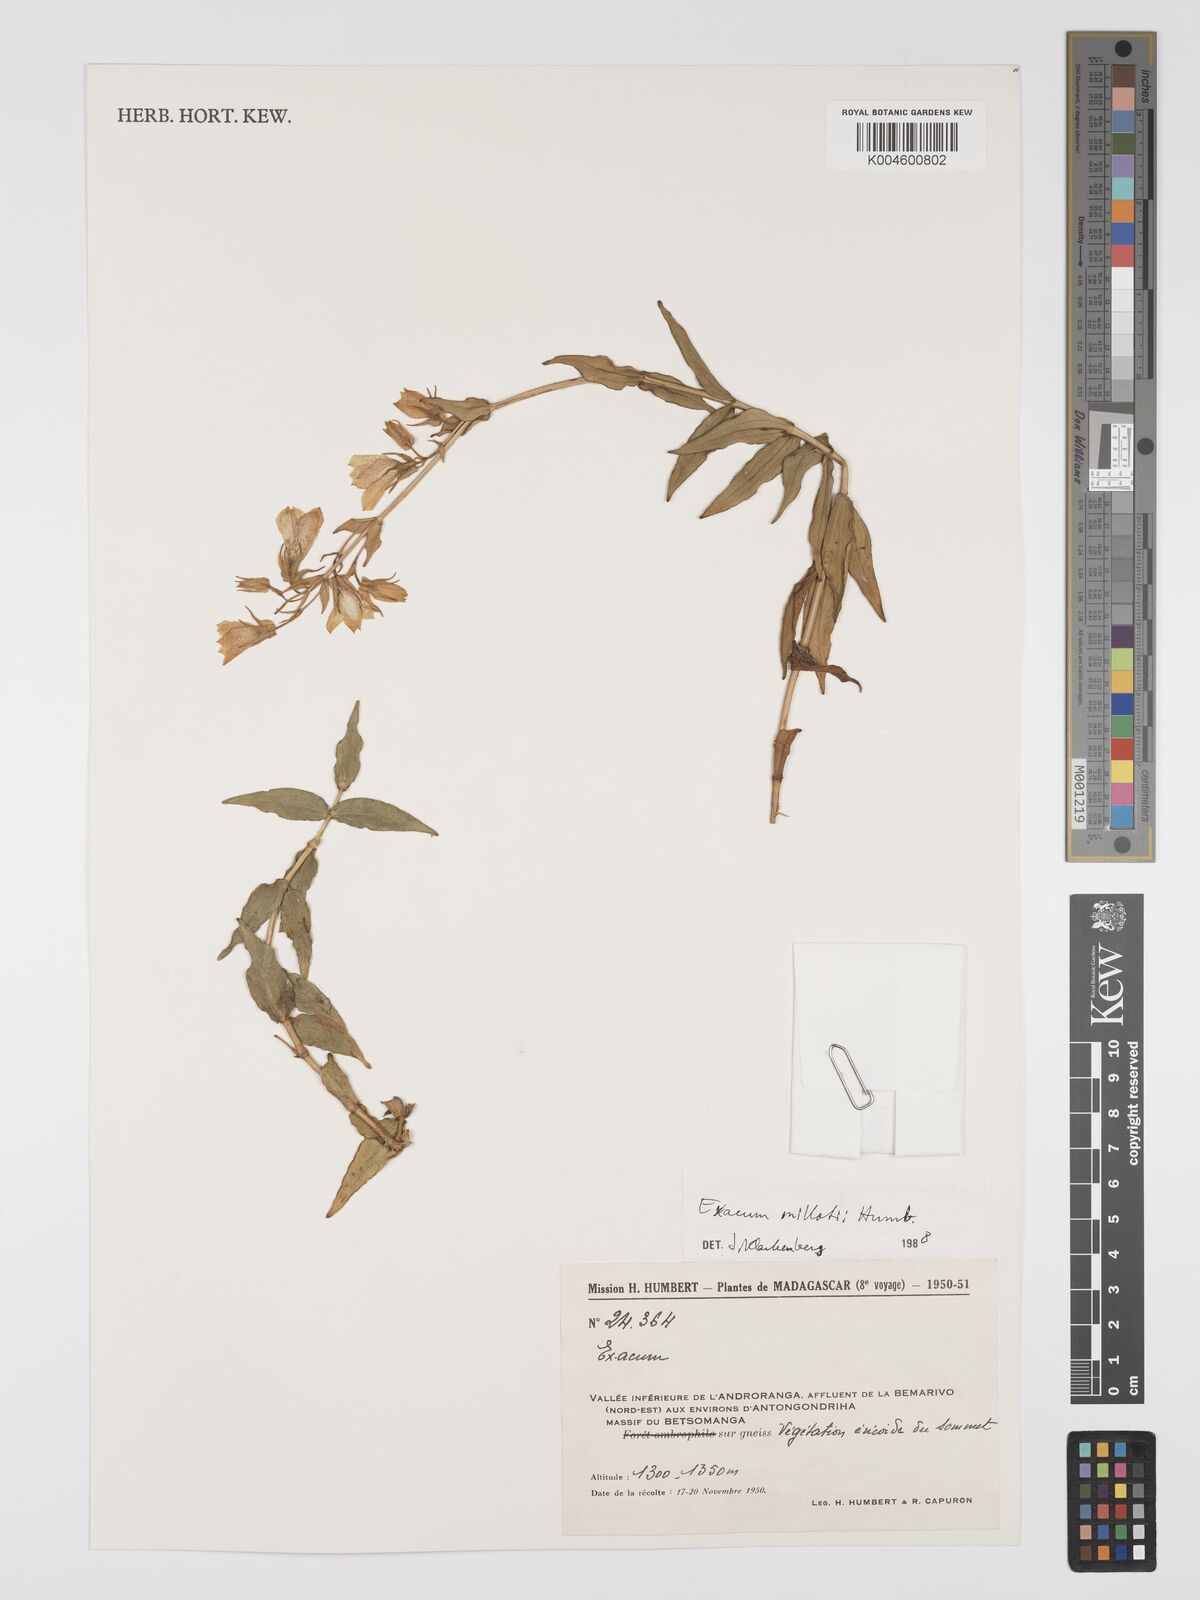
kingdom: Plantae
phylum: Tracheophyta
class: Magnoliopsida
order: Gentianales
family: Gentianaceae
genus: Exacum
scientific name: Exacum millotii
